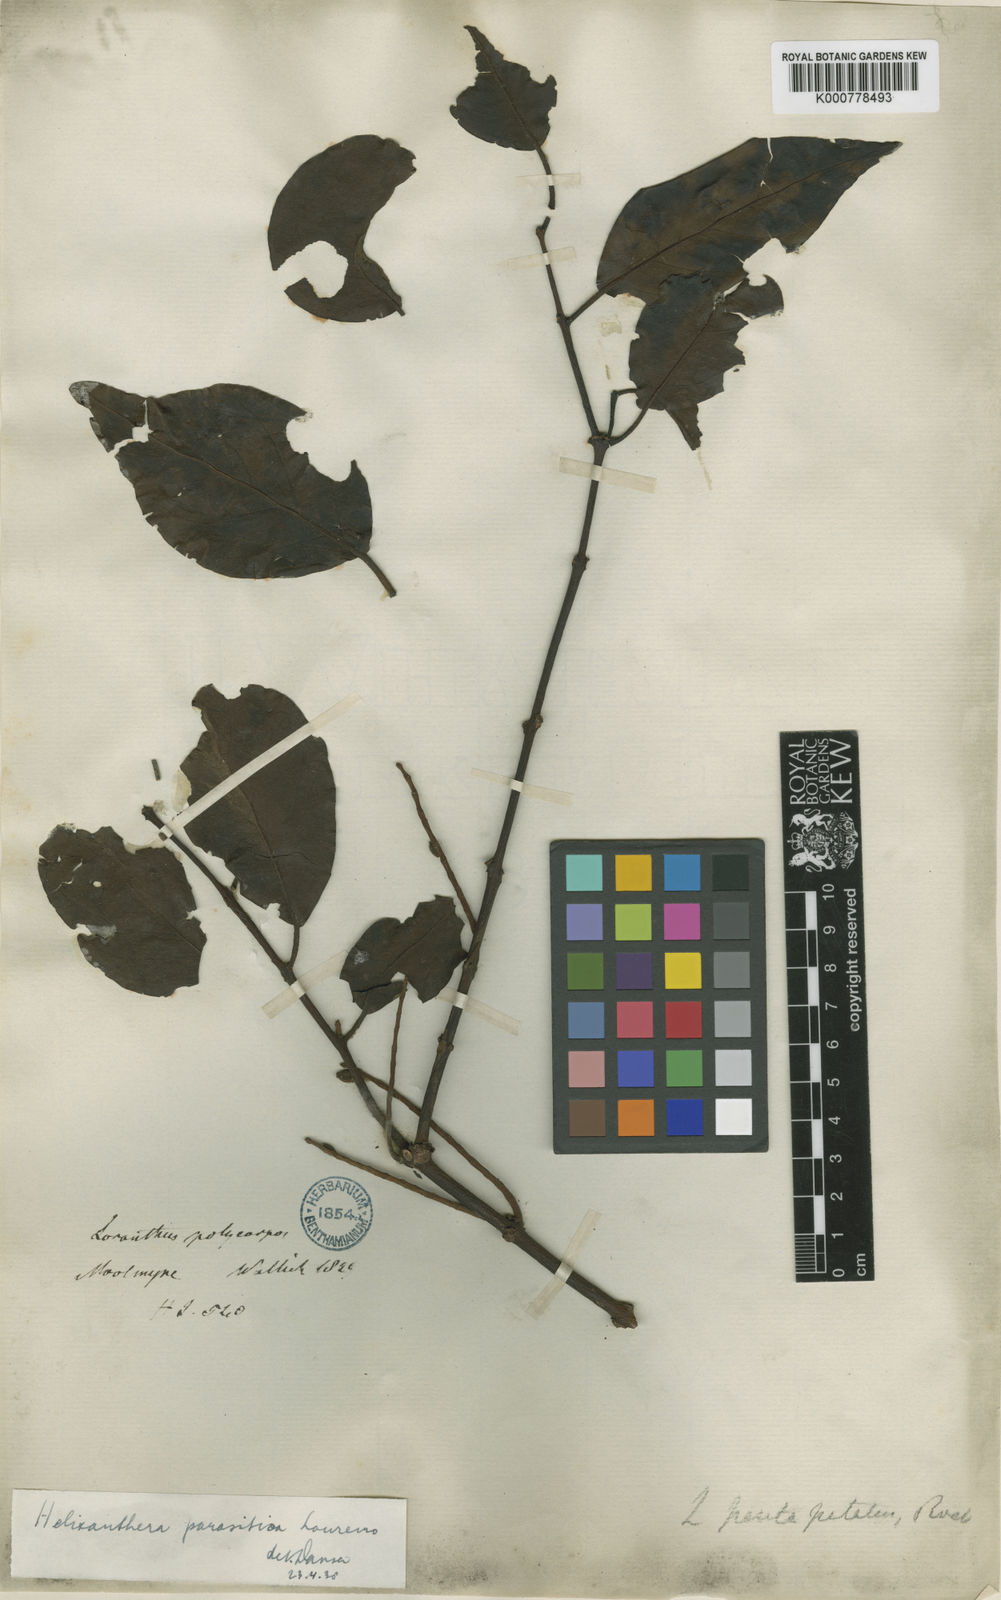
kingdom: Plantae
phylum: Tracheophyta
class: Magnoliopsida
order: Santalales
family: Loranthaceae
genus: Helixanthera
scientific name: Helixanthera parasitica
